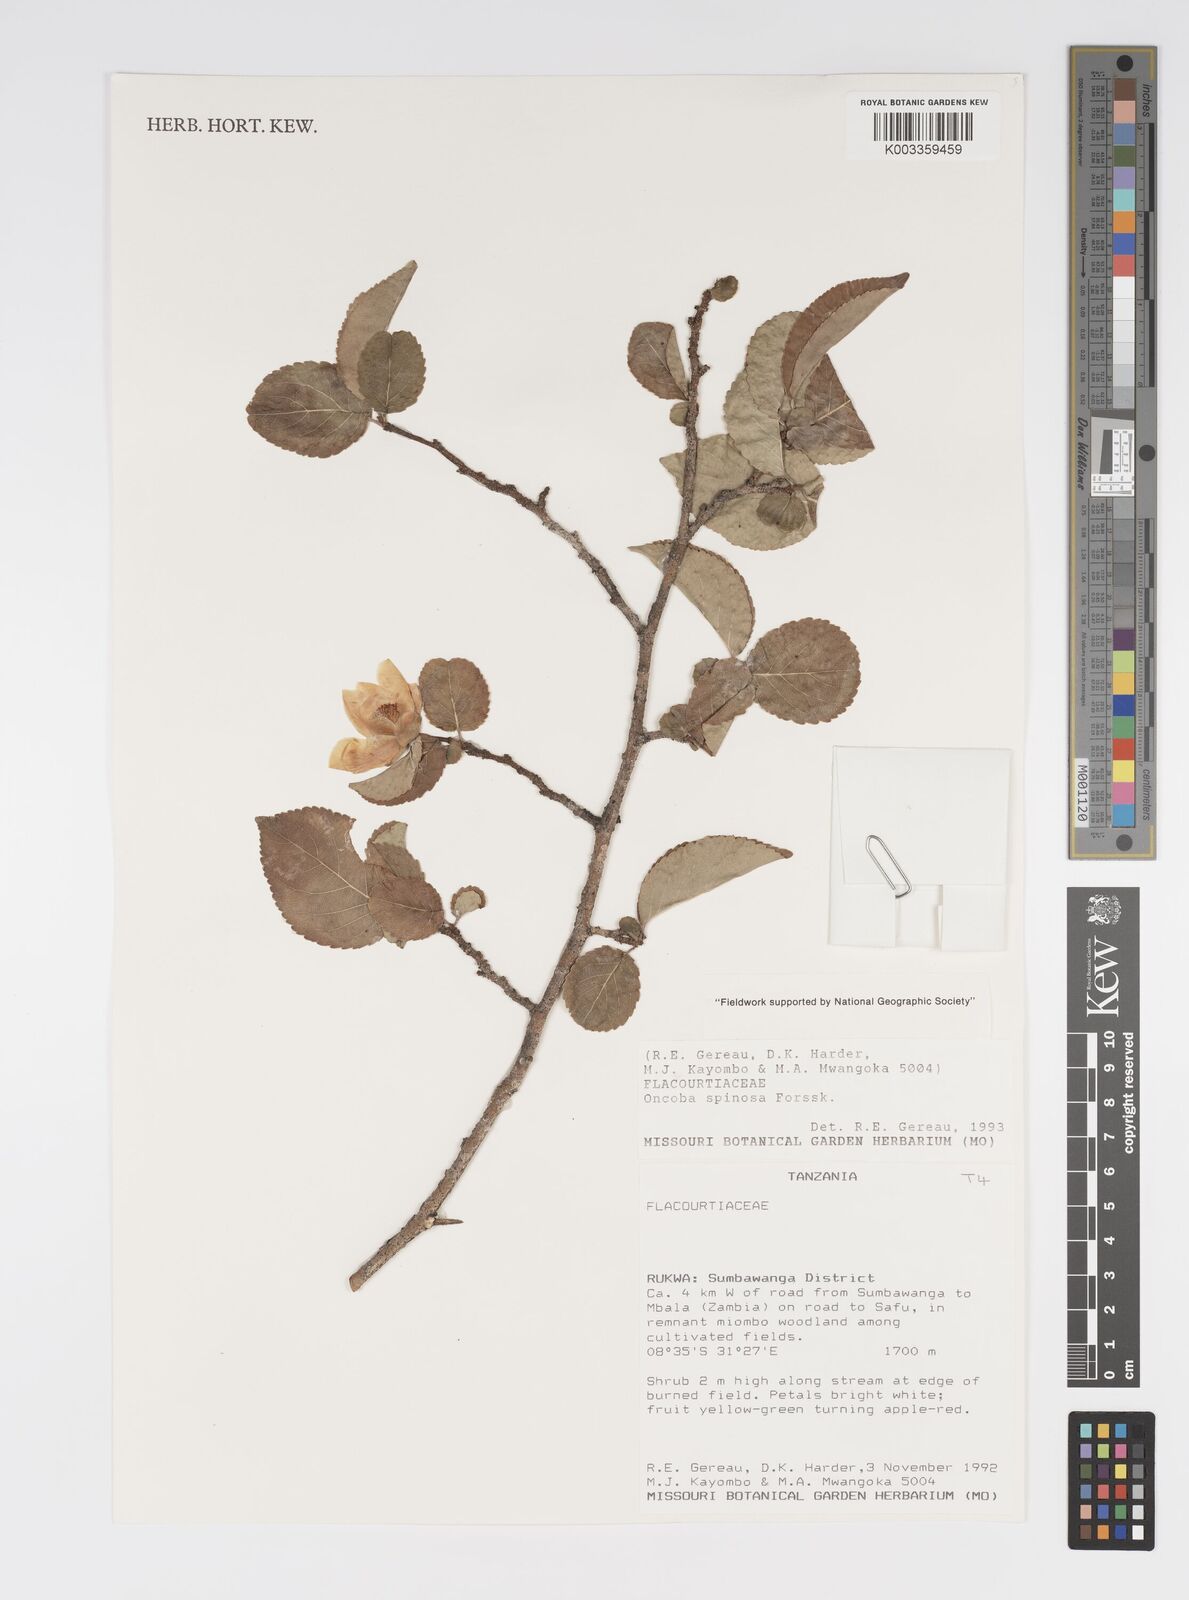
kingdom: Plantae
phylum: Tracheophyta
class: Magnoliopsida
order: Malpighiales
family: Salicaceae
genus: Oncoba
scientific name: Oncoba spinosa
